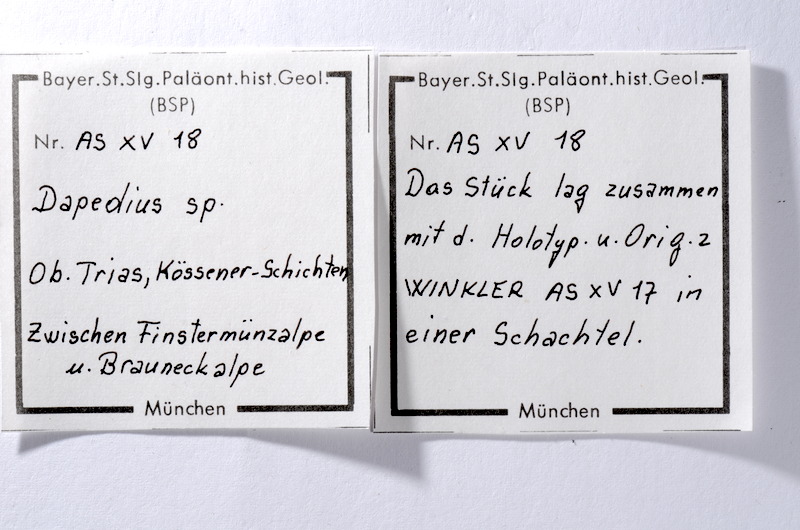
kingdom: Animalia
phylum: Chordata
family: Dapediidae
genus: Dapedium
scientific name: Dapedium
